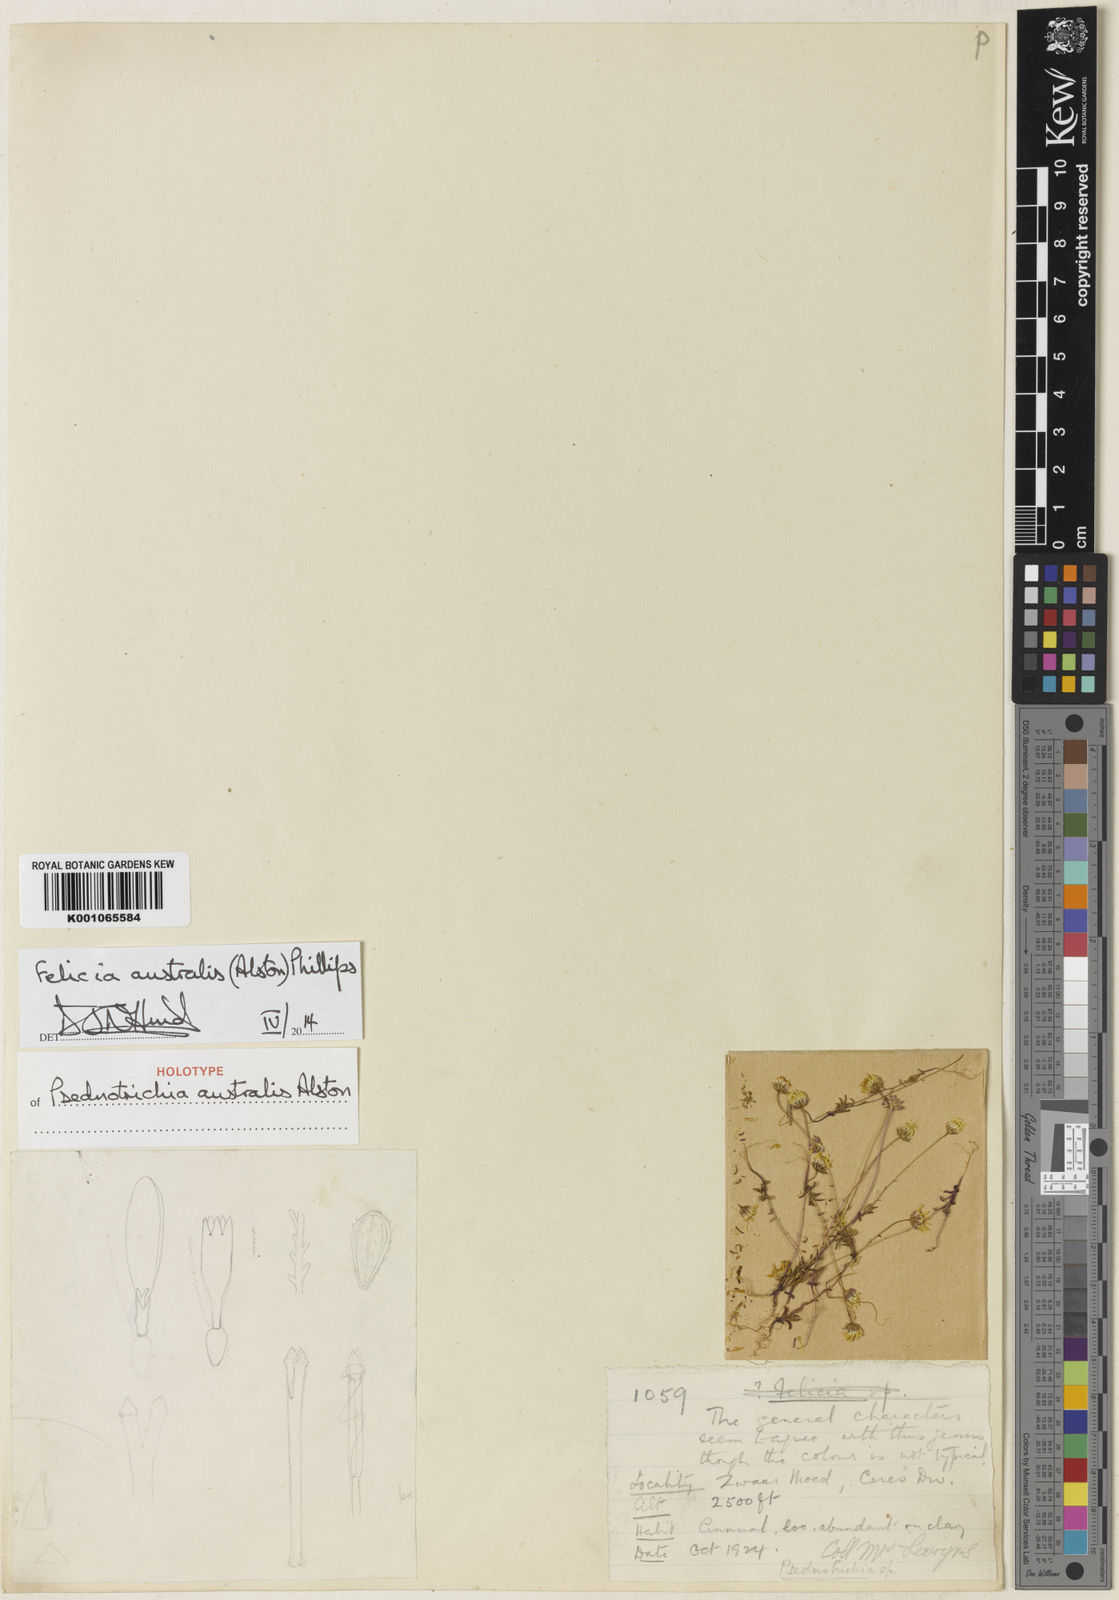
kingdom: Plantae
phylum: Tracheophyta
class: Magnoliopsida
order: Asterales
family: Asteraceae
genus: Felicia
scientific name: Felicia australia
